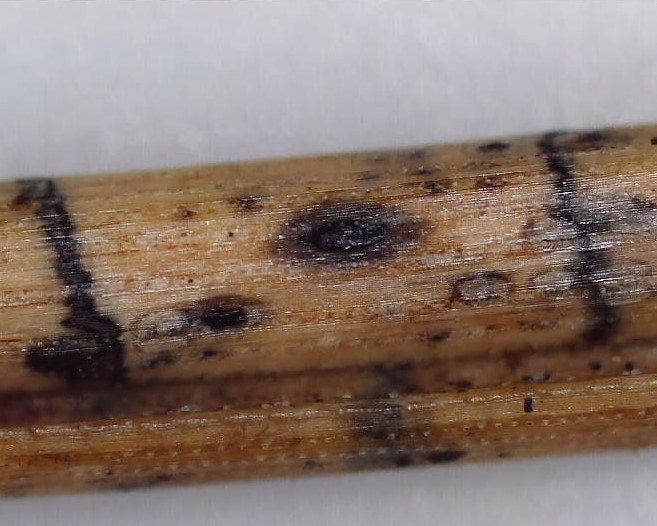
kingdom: Fungi
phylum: Ascomycota
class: Leotiomycetes
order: Rhytismatales
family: Rhytismataceae
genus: Lophodermium
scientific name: Lophodermium pinastri
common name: fyrre-fureplet
